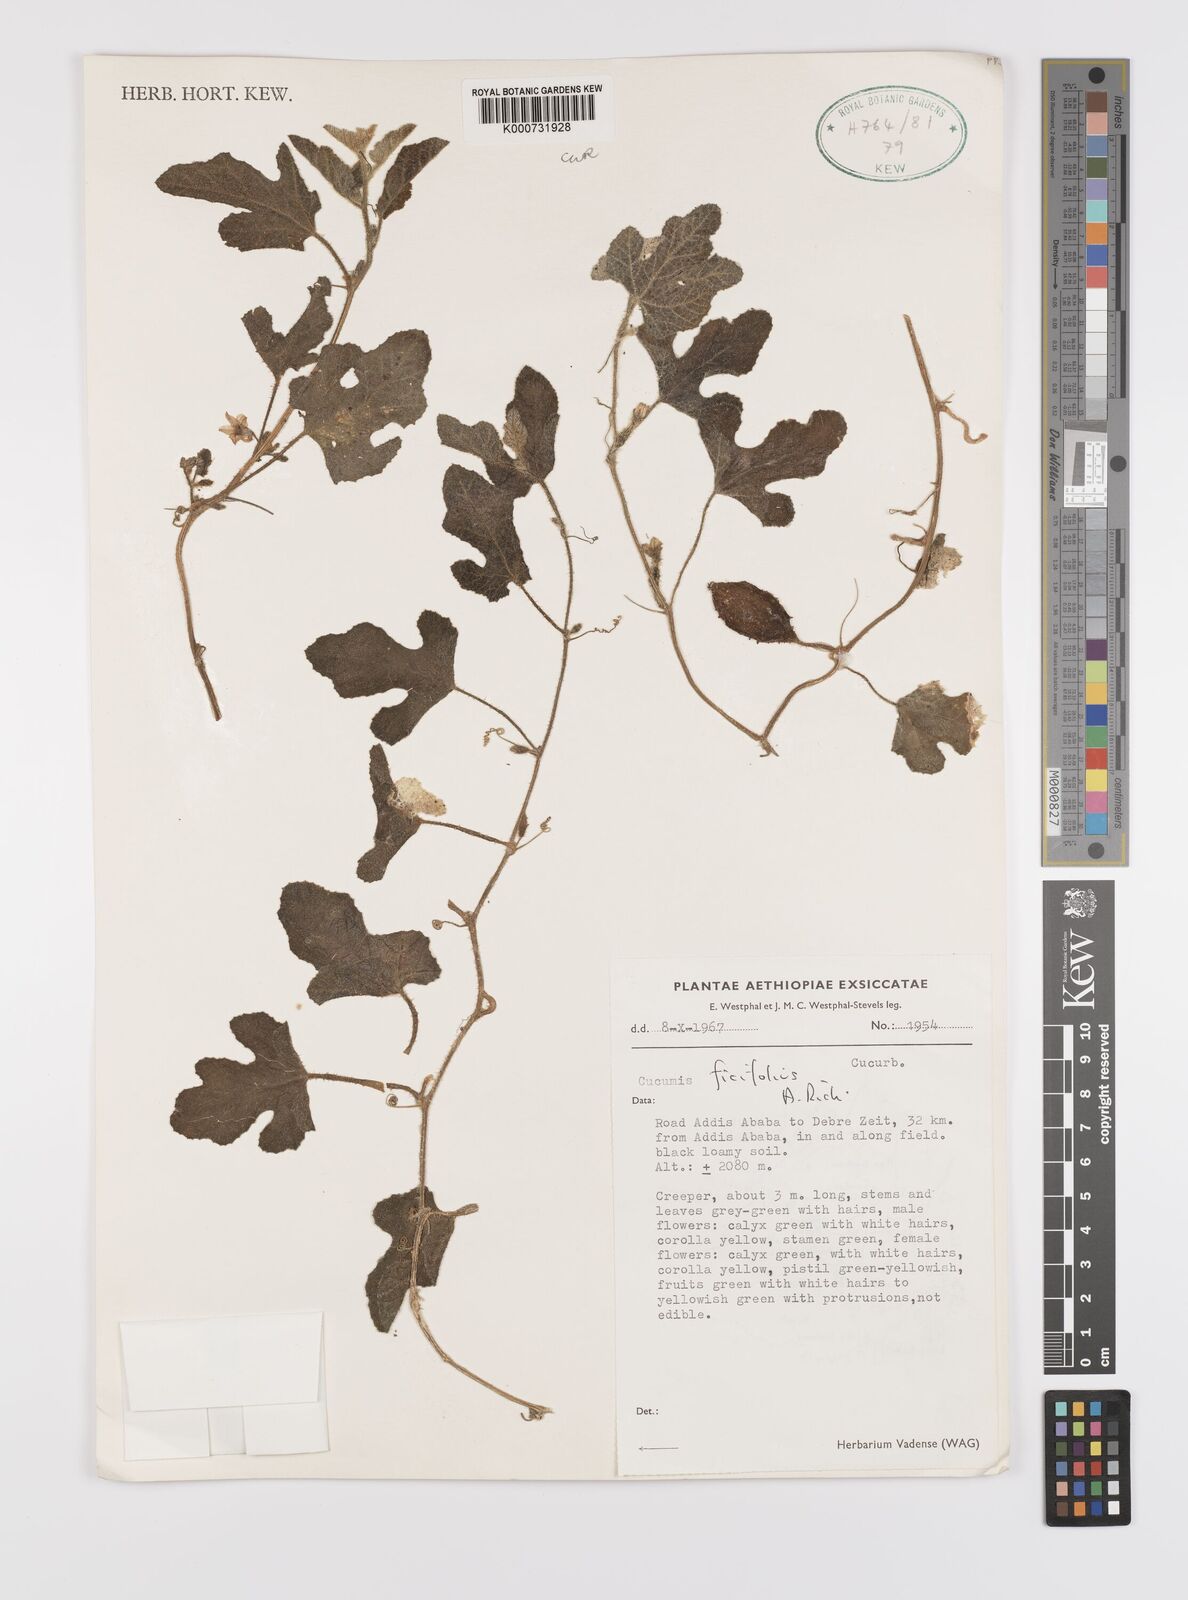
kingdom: Plantae
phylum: Tracheophyta
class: Magnoliopsida
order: Cucurbitales
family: Cucurbitaceae
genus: Cucumis
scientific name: Cucumis ficifolius
